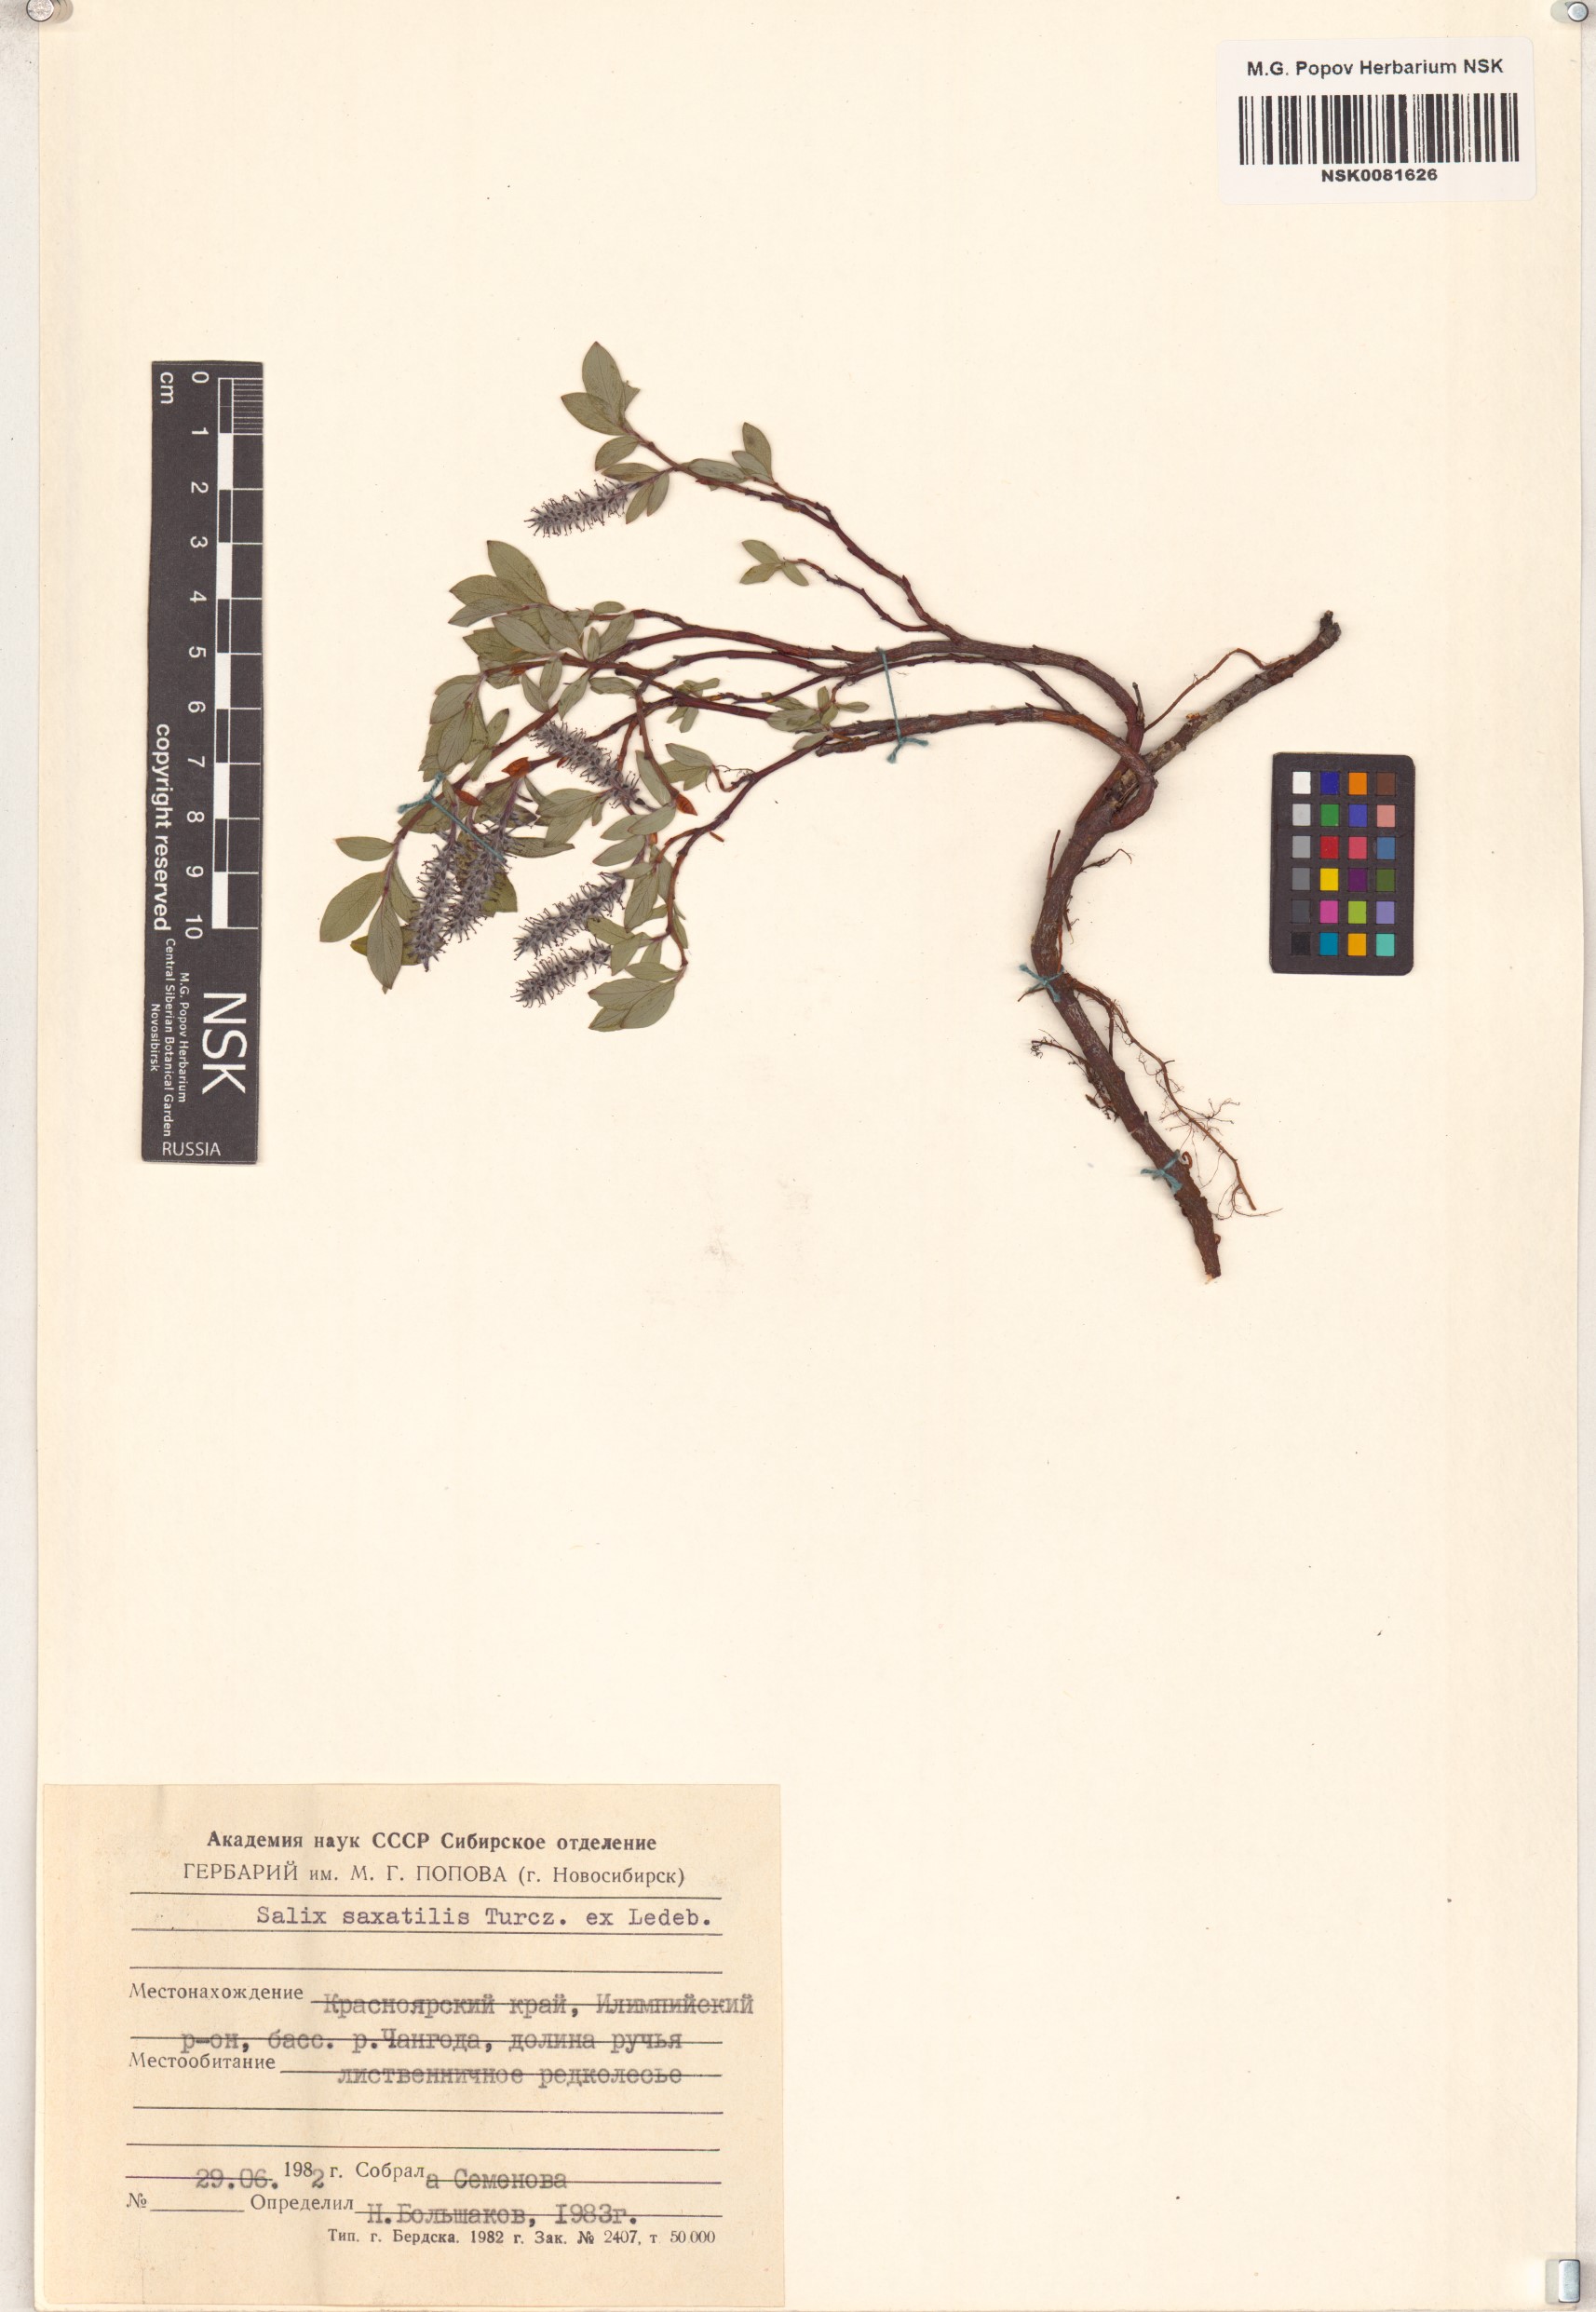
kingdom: Plantae
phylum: Tracheophyta
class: Magnoliopsida
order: Malpighiales
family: Salicaceae
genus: Salix
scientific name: Salix saxatilis
